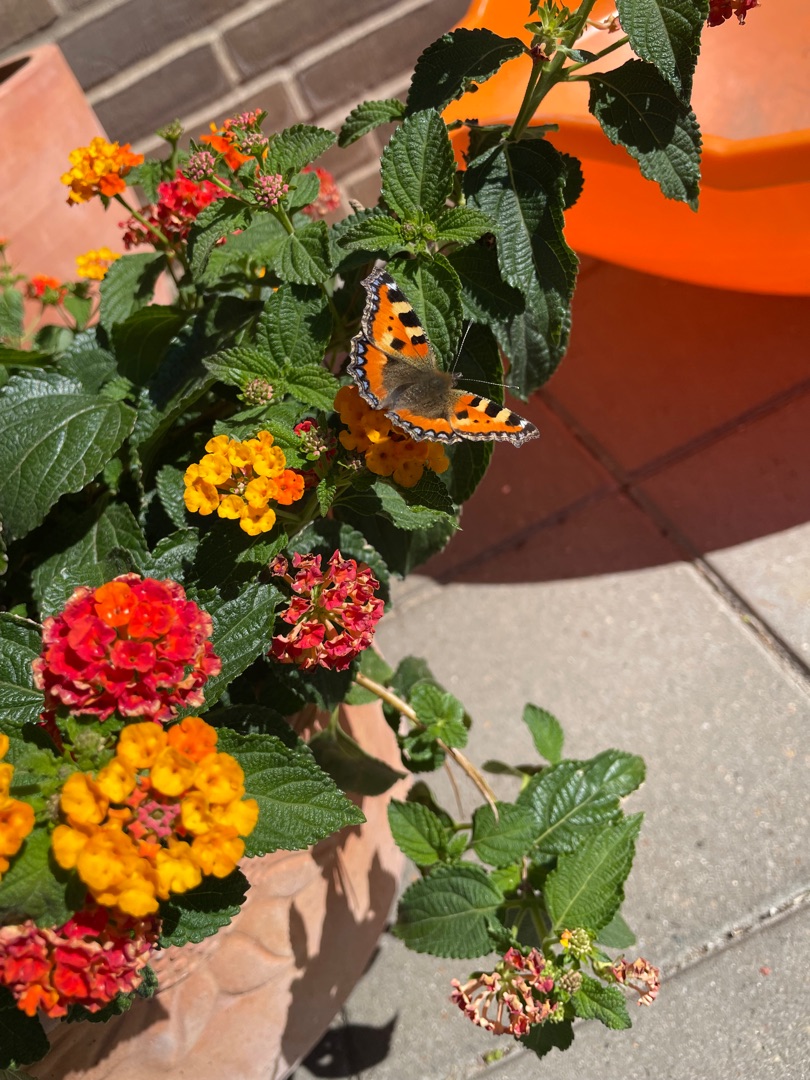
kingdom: Animalia
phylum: Arthropoda
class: Insecta
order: Lepidoptera
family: Nymphalidae
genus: Aglais
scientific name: Aglais urticae
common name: Nældens takvinge
